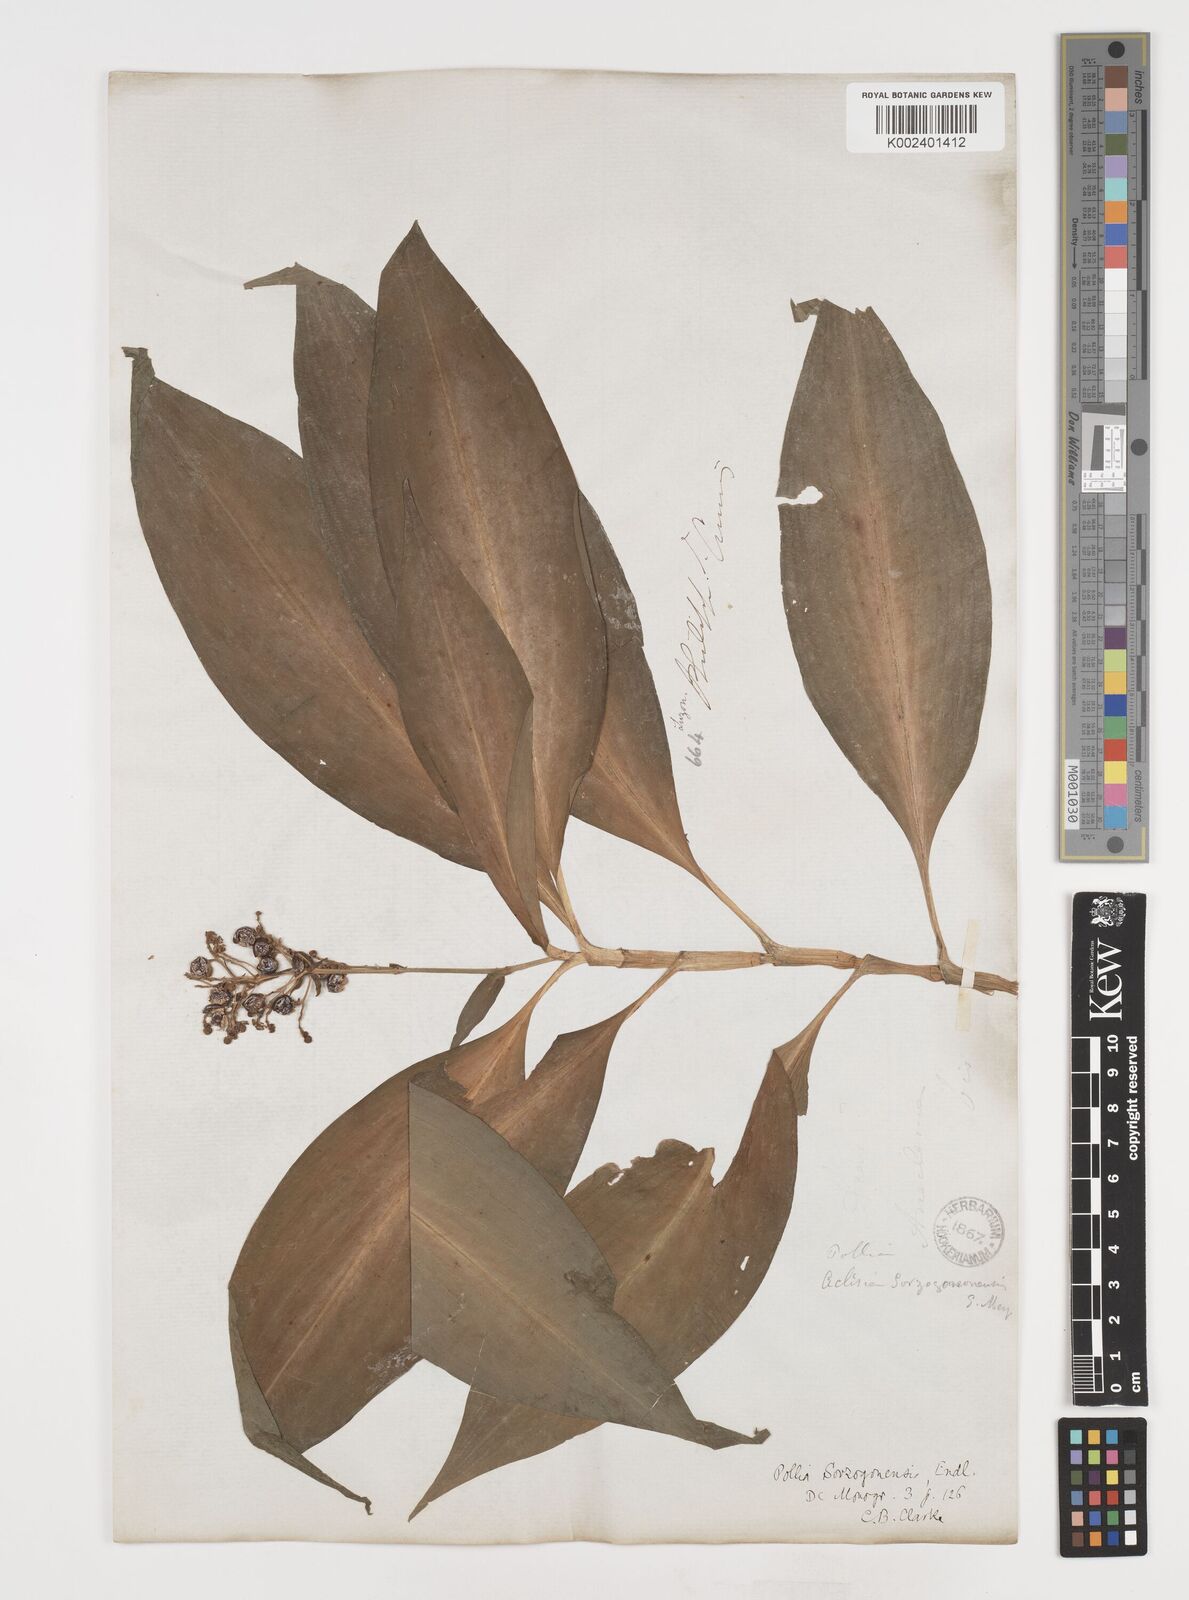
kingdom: Plantae
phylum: Tracheophyta
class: Liliopsida
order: Commelinales
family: Commelinaceae
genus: Pollia
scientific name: Pollia secundiflora
